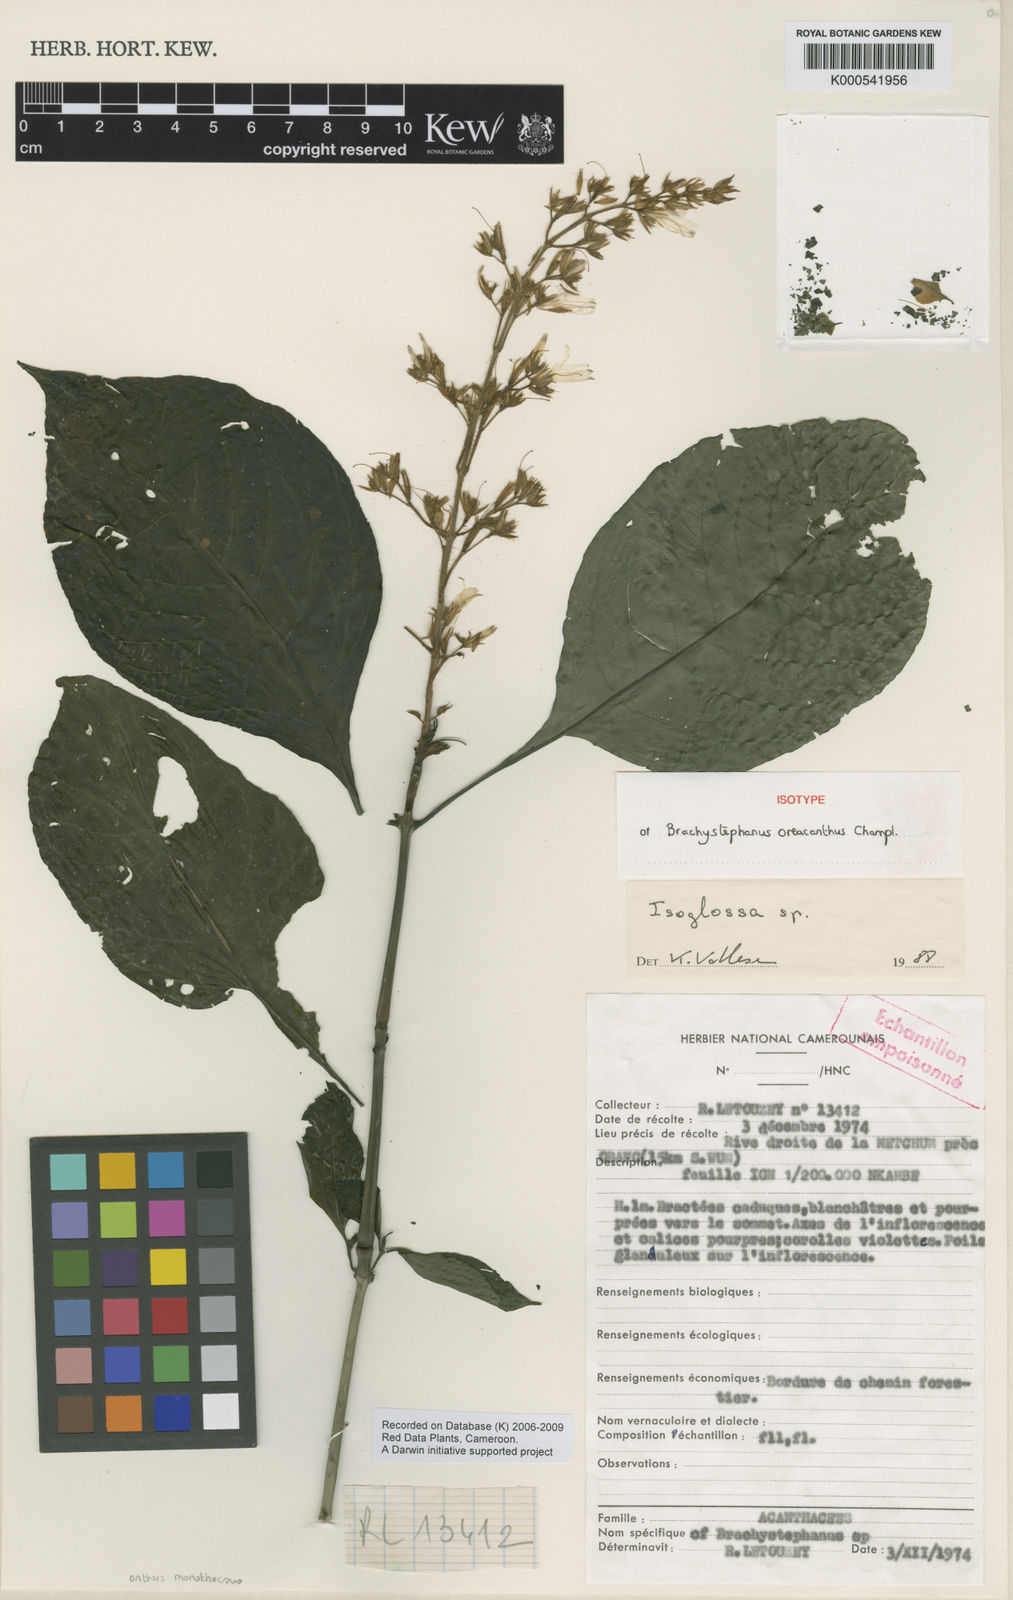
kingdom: Plantae
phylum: Tracheophyta
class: Magnoliopsida
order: Lamiales
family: Acanthaceae
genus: Brachystephanus
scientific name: Brachystephanus oreacanthus
